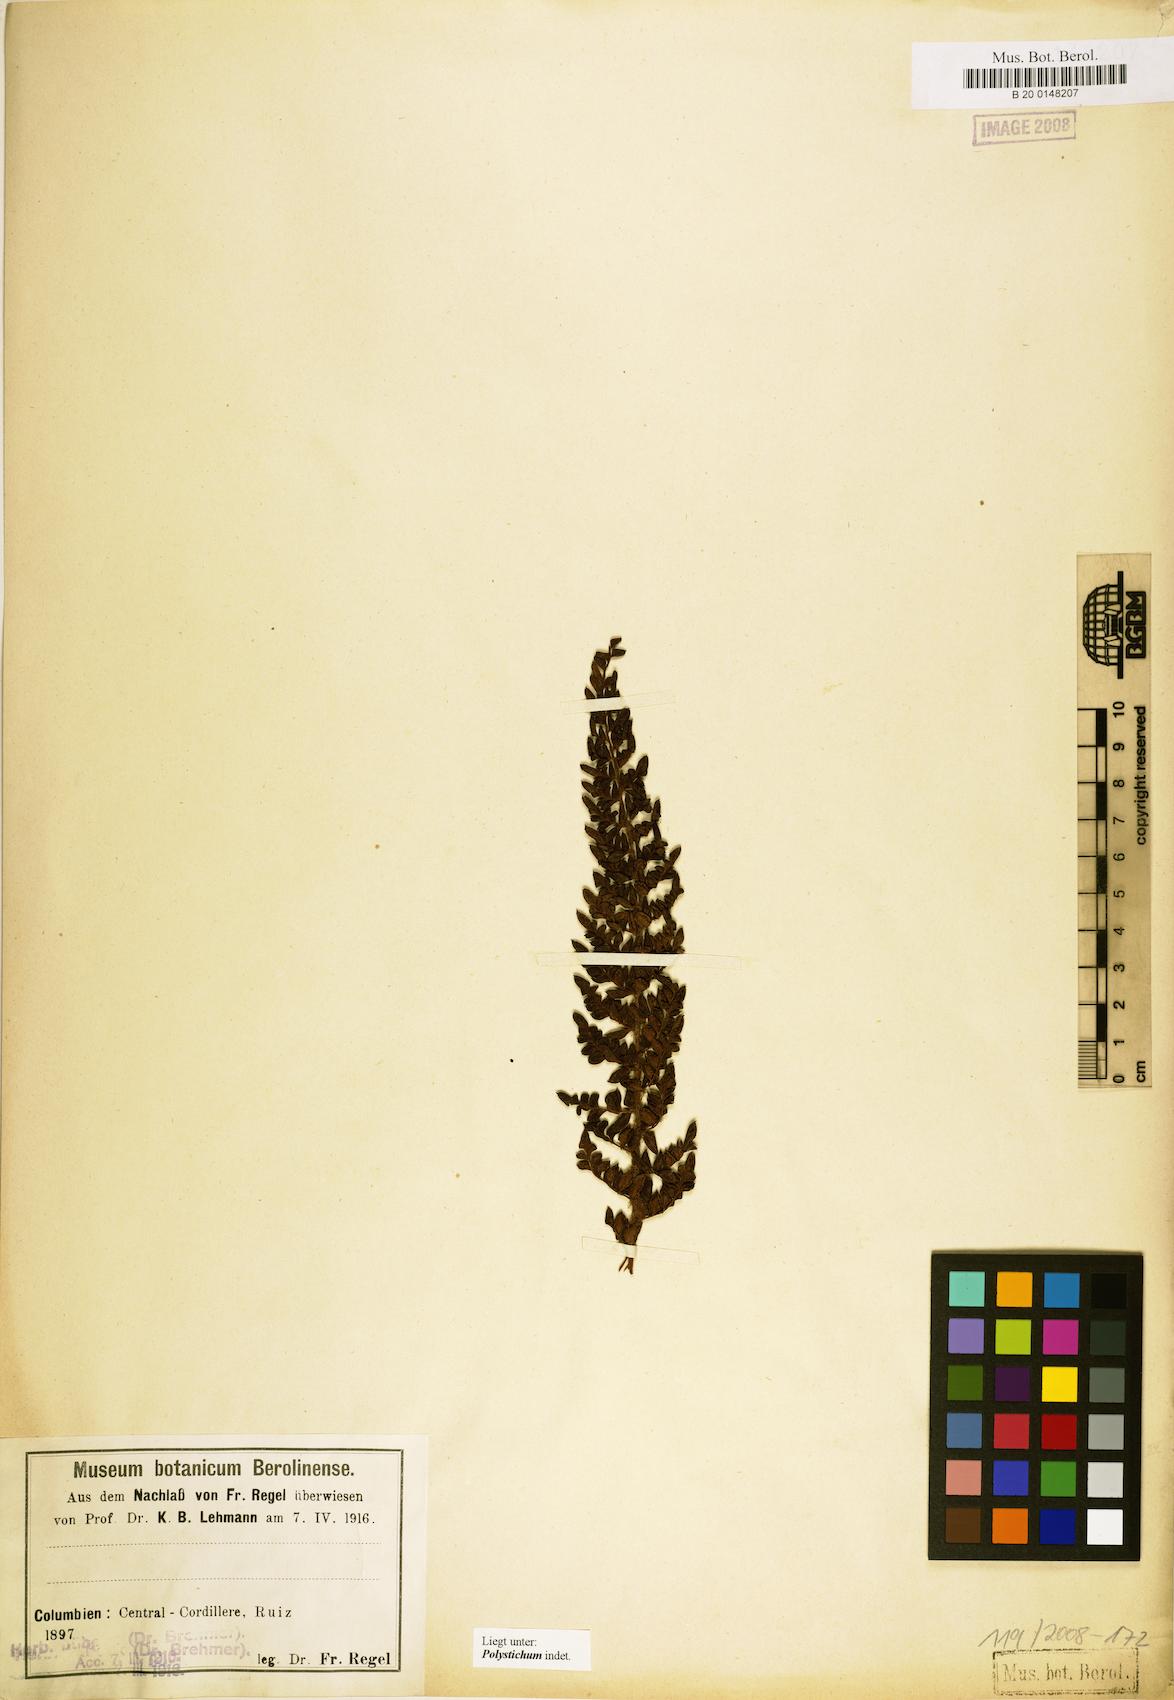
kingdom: Plantae
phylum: Tracheophyta
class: Polypodiopsida
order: Polypodiales
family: Dryopteridaceae
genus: Polystichum
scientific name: Polystichum
